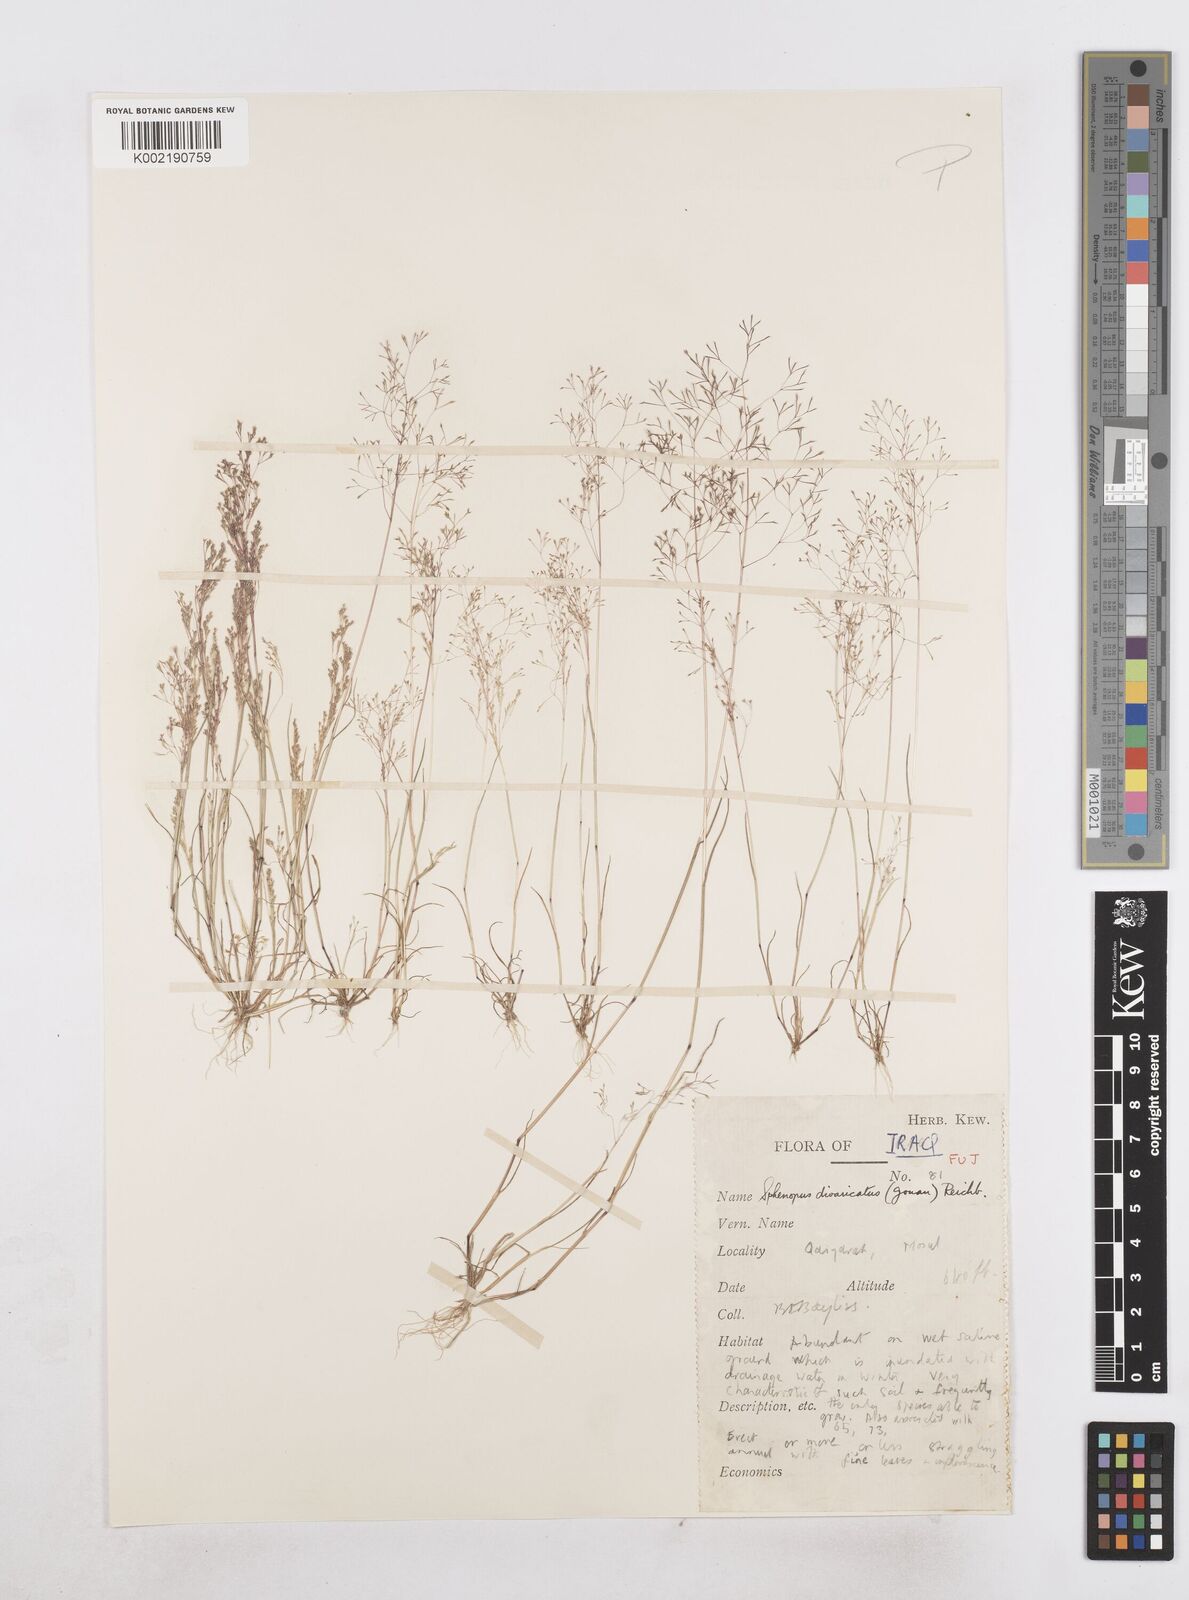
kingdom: Plantae
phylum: Tracheophyta
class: Liliopsida
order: Poales
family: Poaceae
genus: Sphenopus
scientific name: Sphenopus divaricatus
